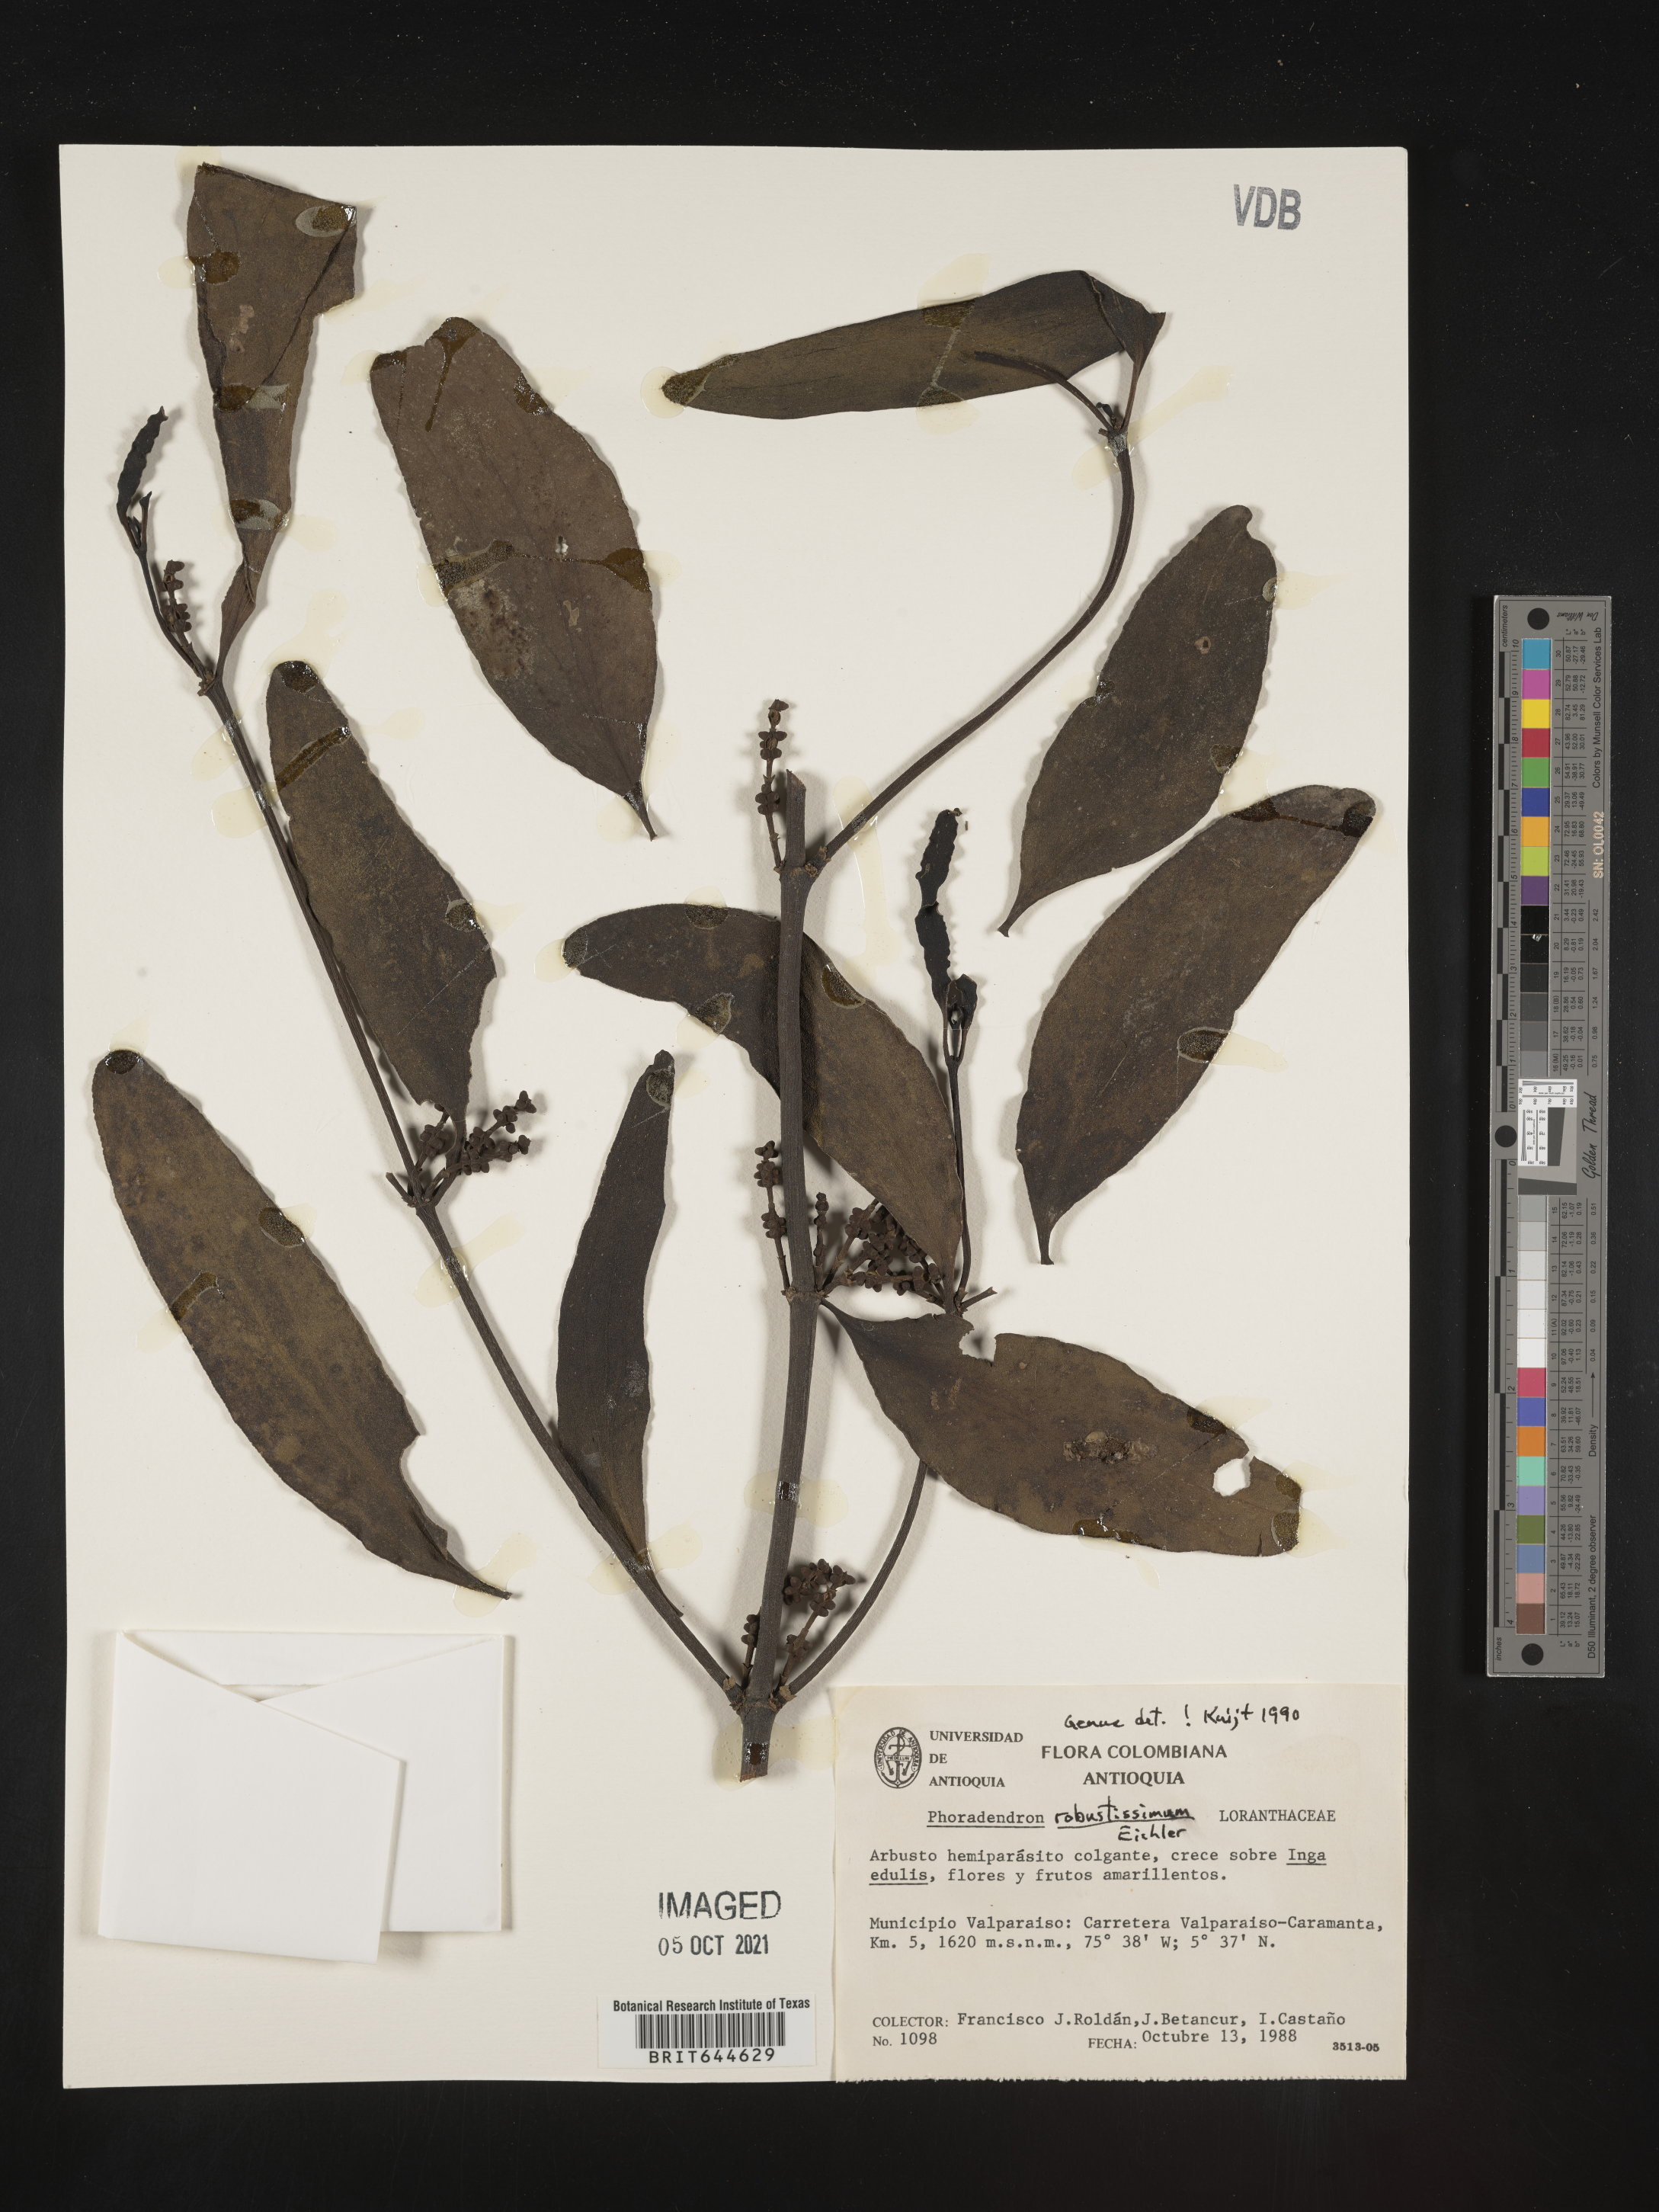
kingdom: Plantae
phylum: Tracheophyta
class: Magnoliopsida
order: Santalales
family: Viscaceae
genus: Phoradendron
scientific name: Phoradendron
